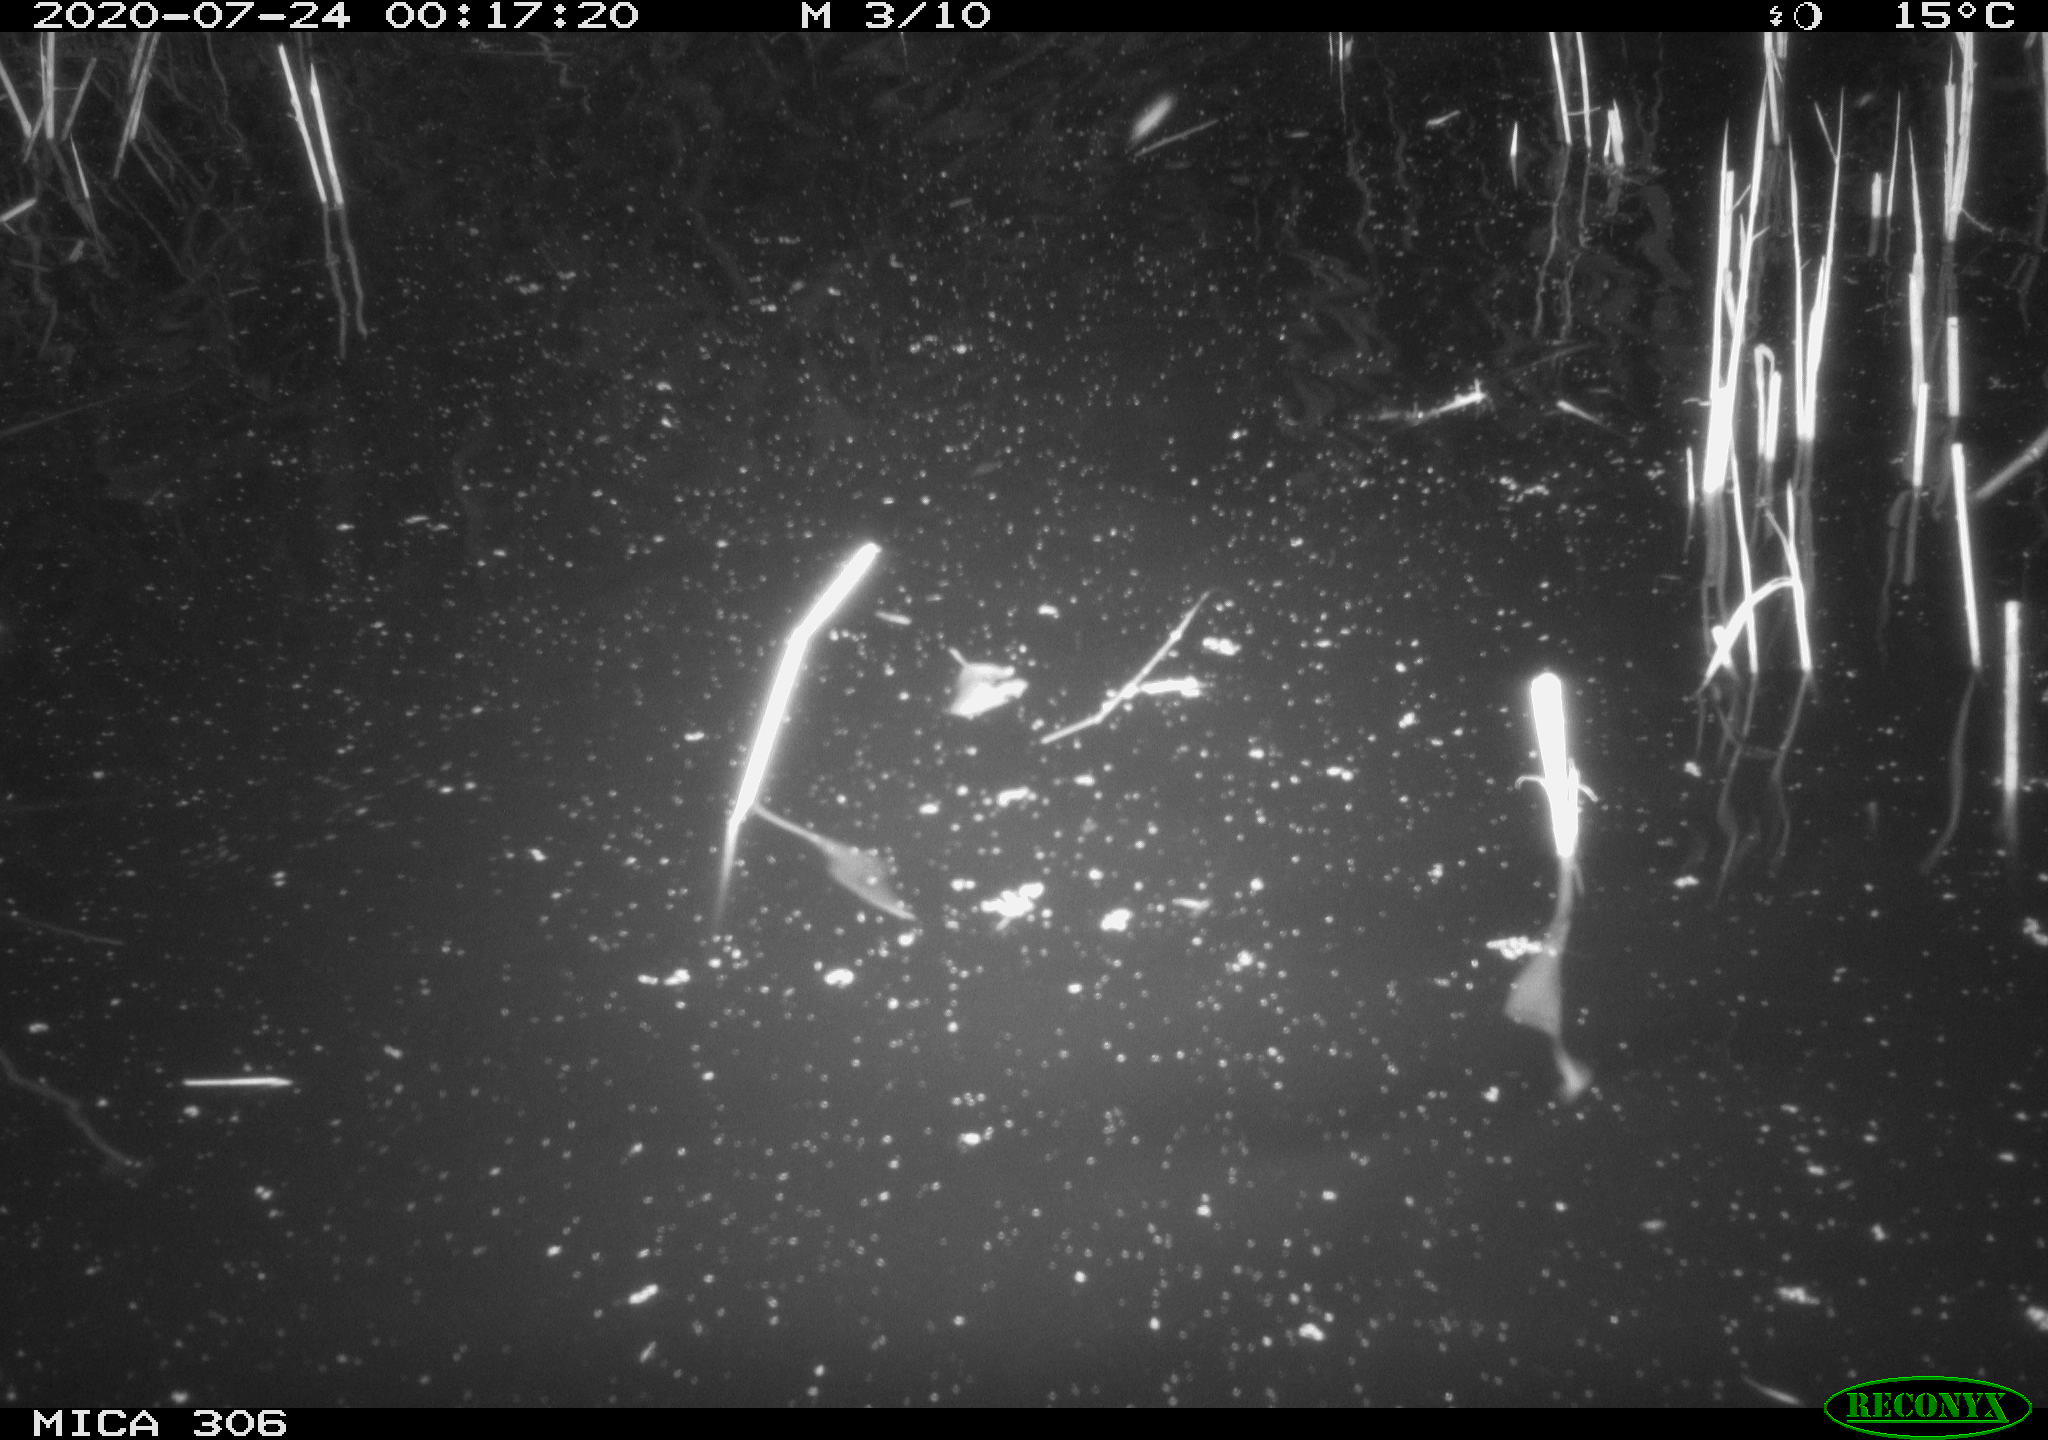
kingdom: Animalia
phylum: Chordata
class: Mammalia
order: Rodentia
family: Muridae
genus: Rattus
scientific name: Rattus norvegicus
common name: Brown rat
